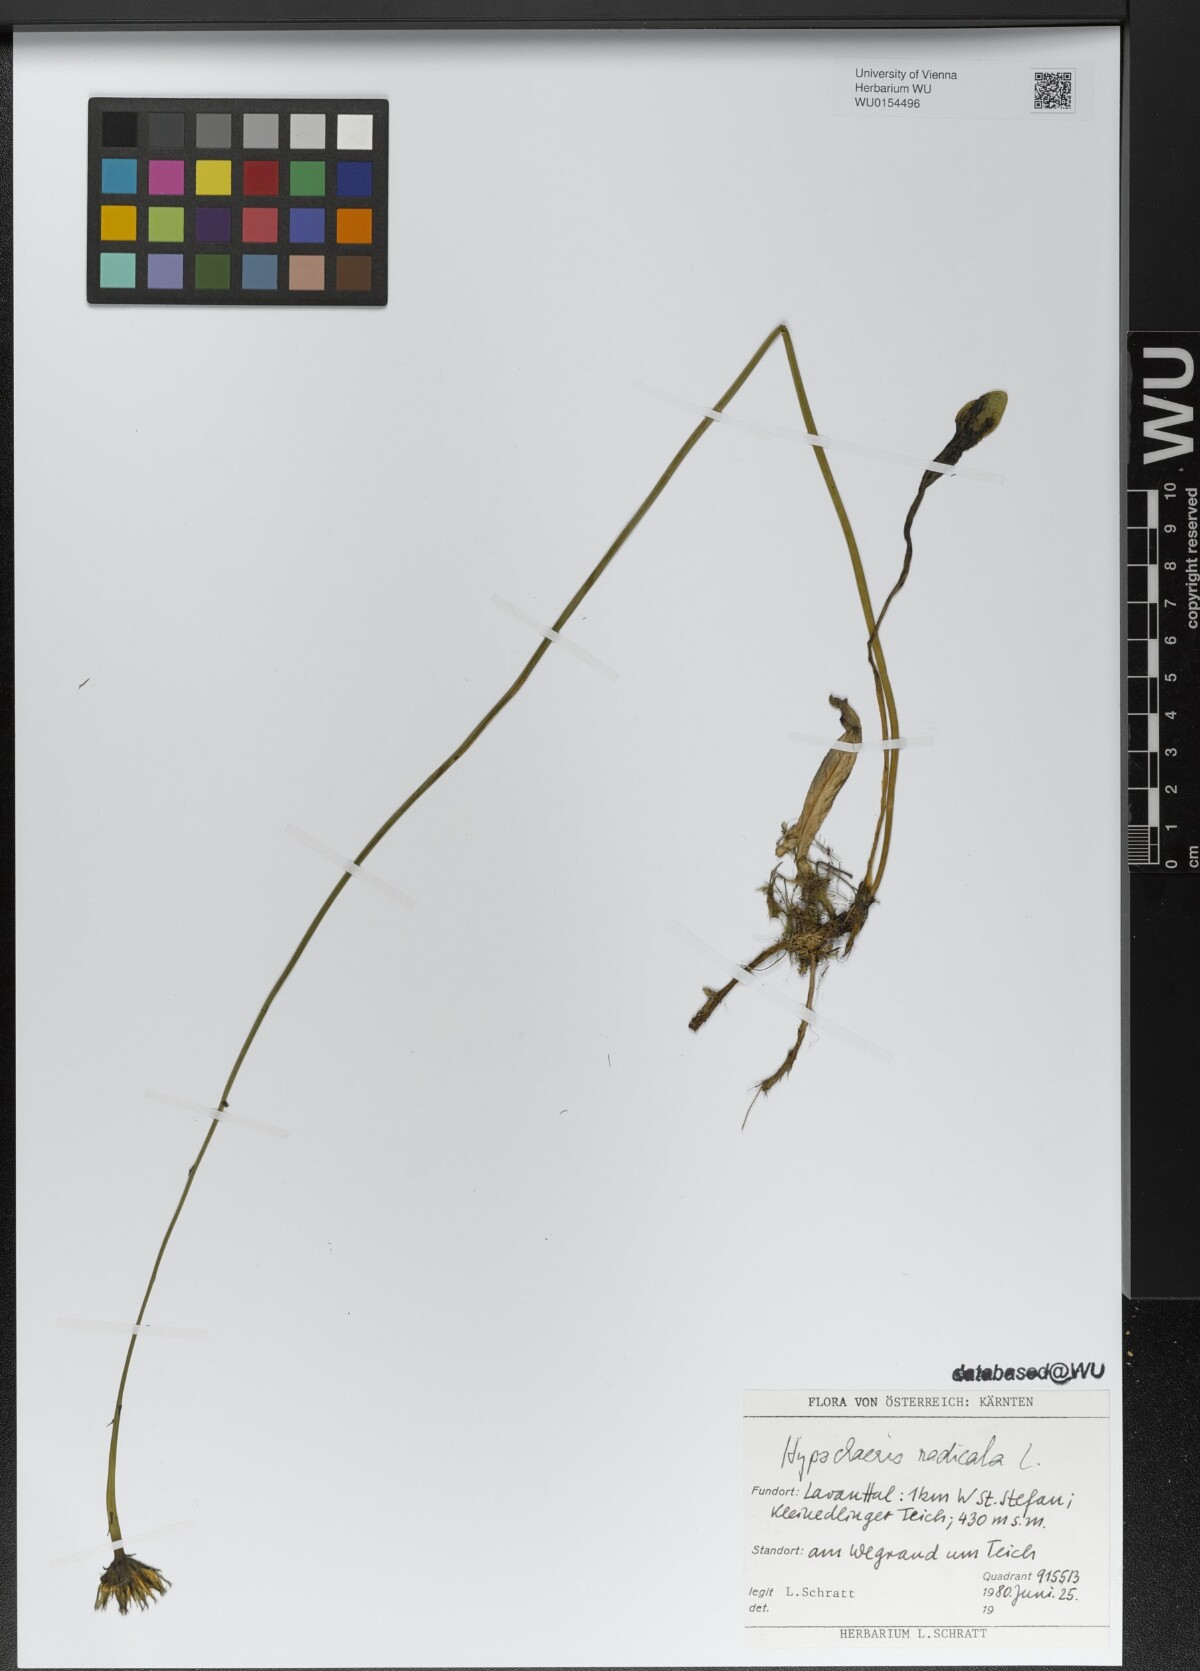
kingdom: Plantae
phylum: Tracheophyta
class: Magnoliopsida
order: Asterales
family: Asteraceae
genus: Hypochaeris
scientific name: Hypochaeris radicata
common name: Flatweed
